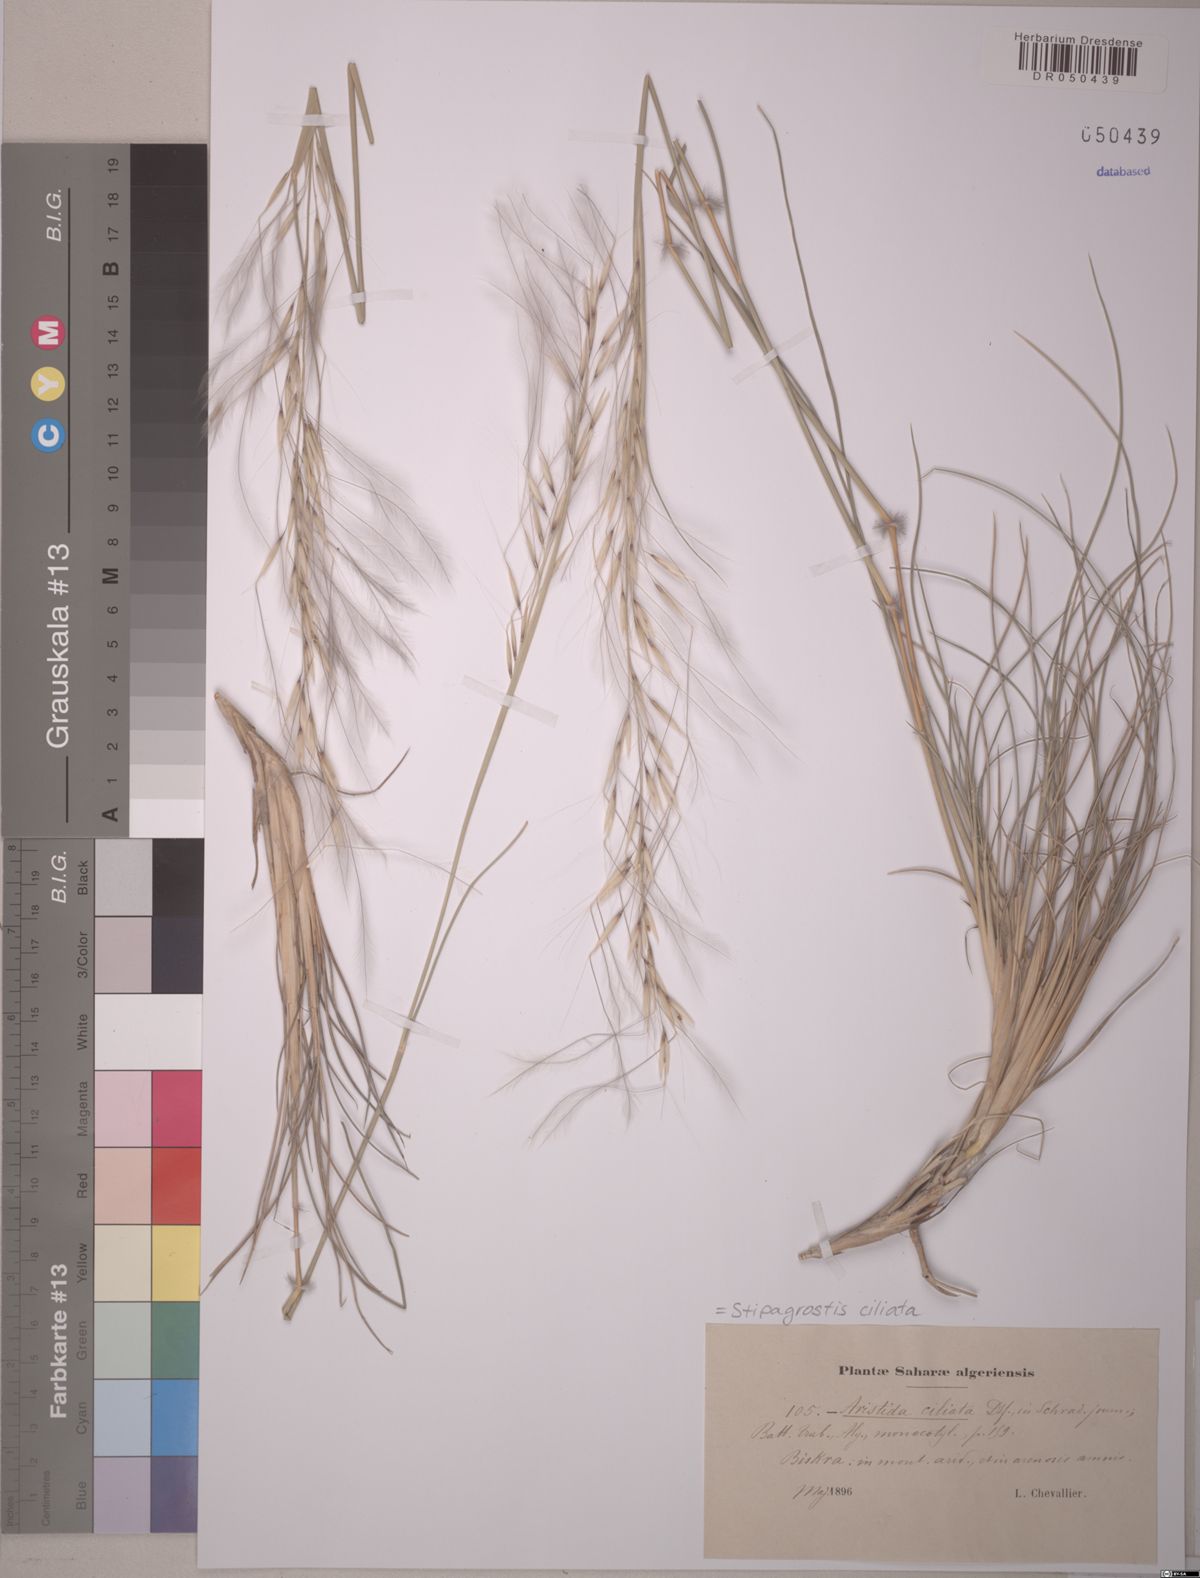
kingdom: Plantae
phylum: Tracheophyta
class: Liliopsida
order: Poales
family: Poaceae
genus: Stipagrostis
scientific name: Stipagrostis ciliata
